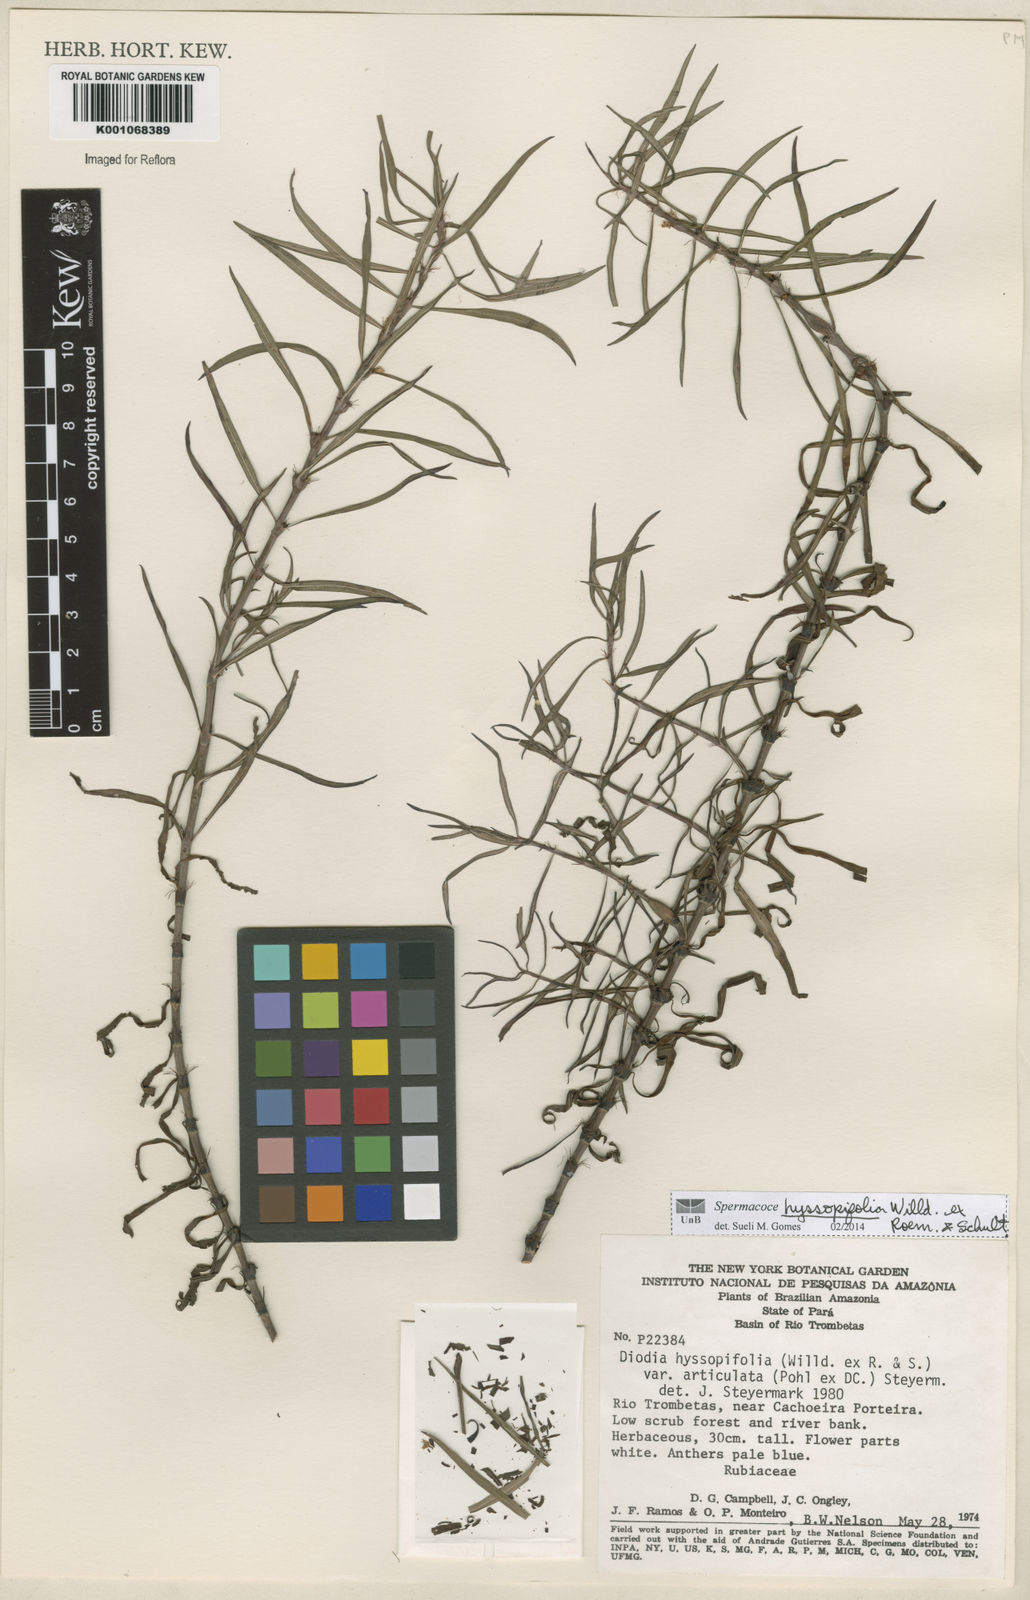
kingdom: Plantae
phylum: Tracheophyta
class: Magnoliopsida
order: Gentianales
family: Rubiaceae
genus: Spermacoce
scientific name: Spermacoce
